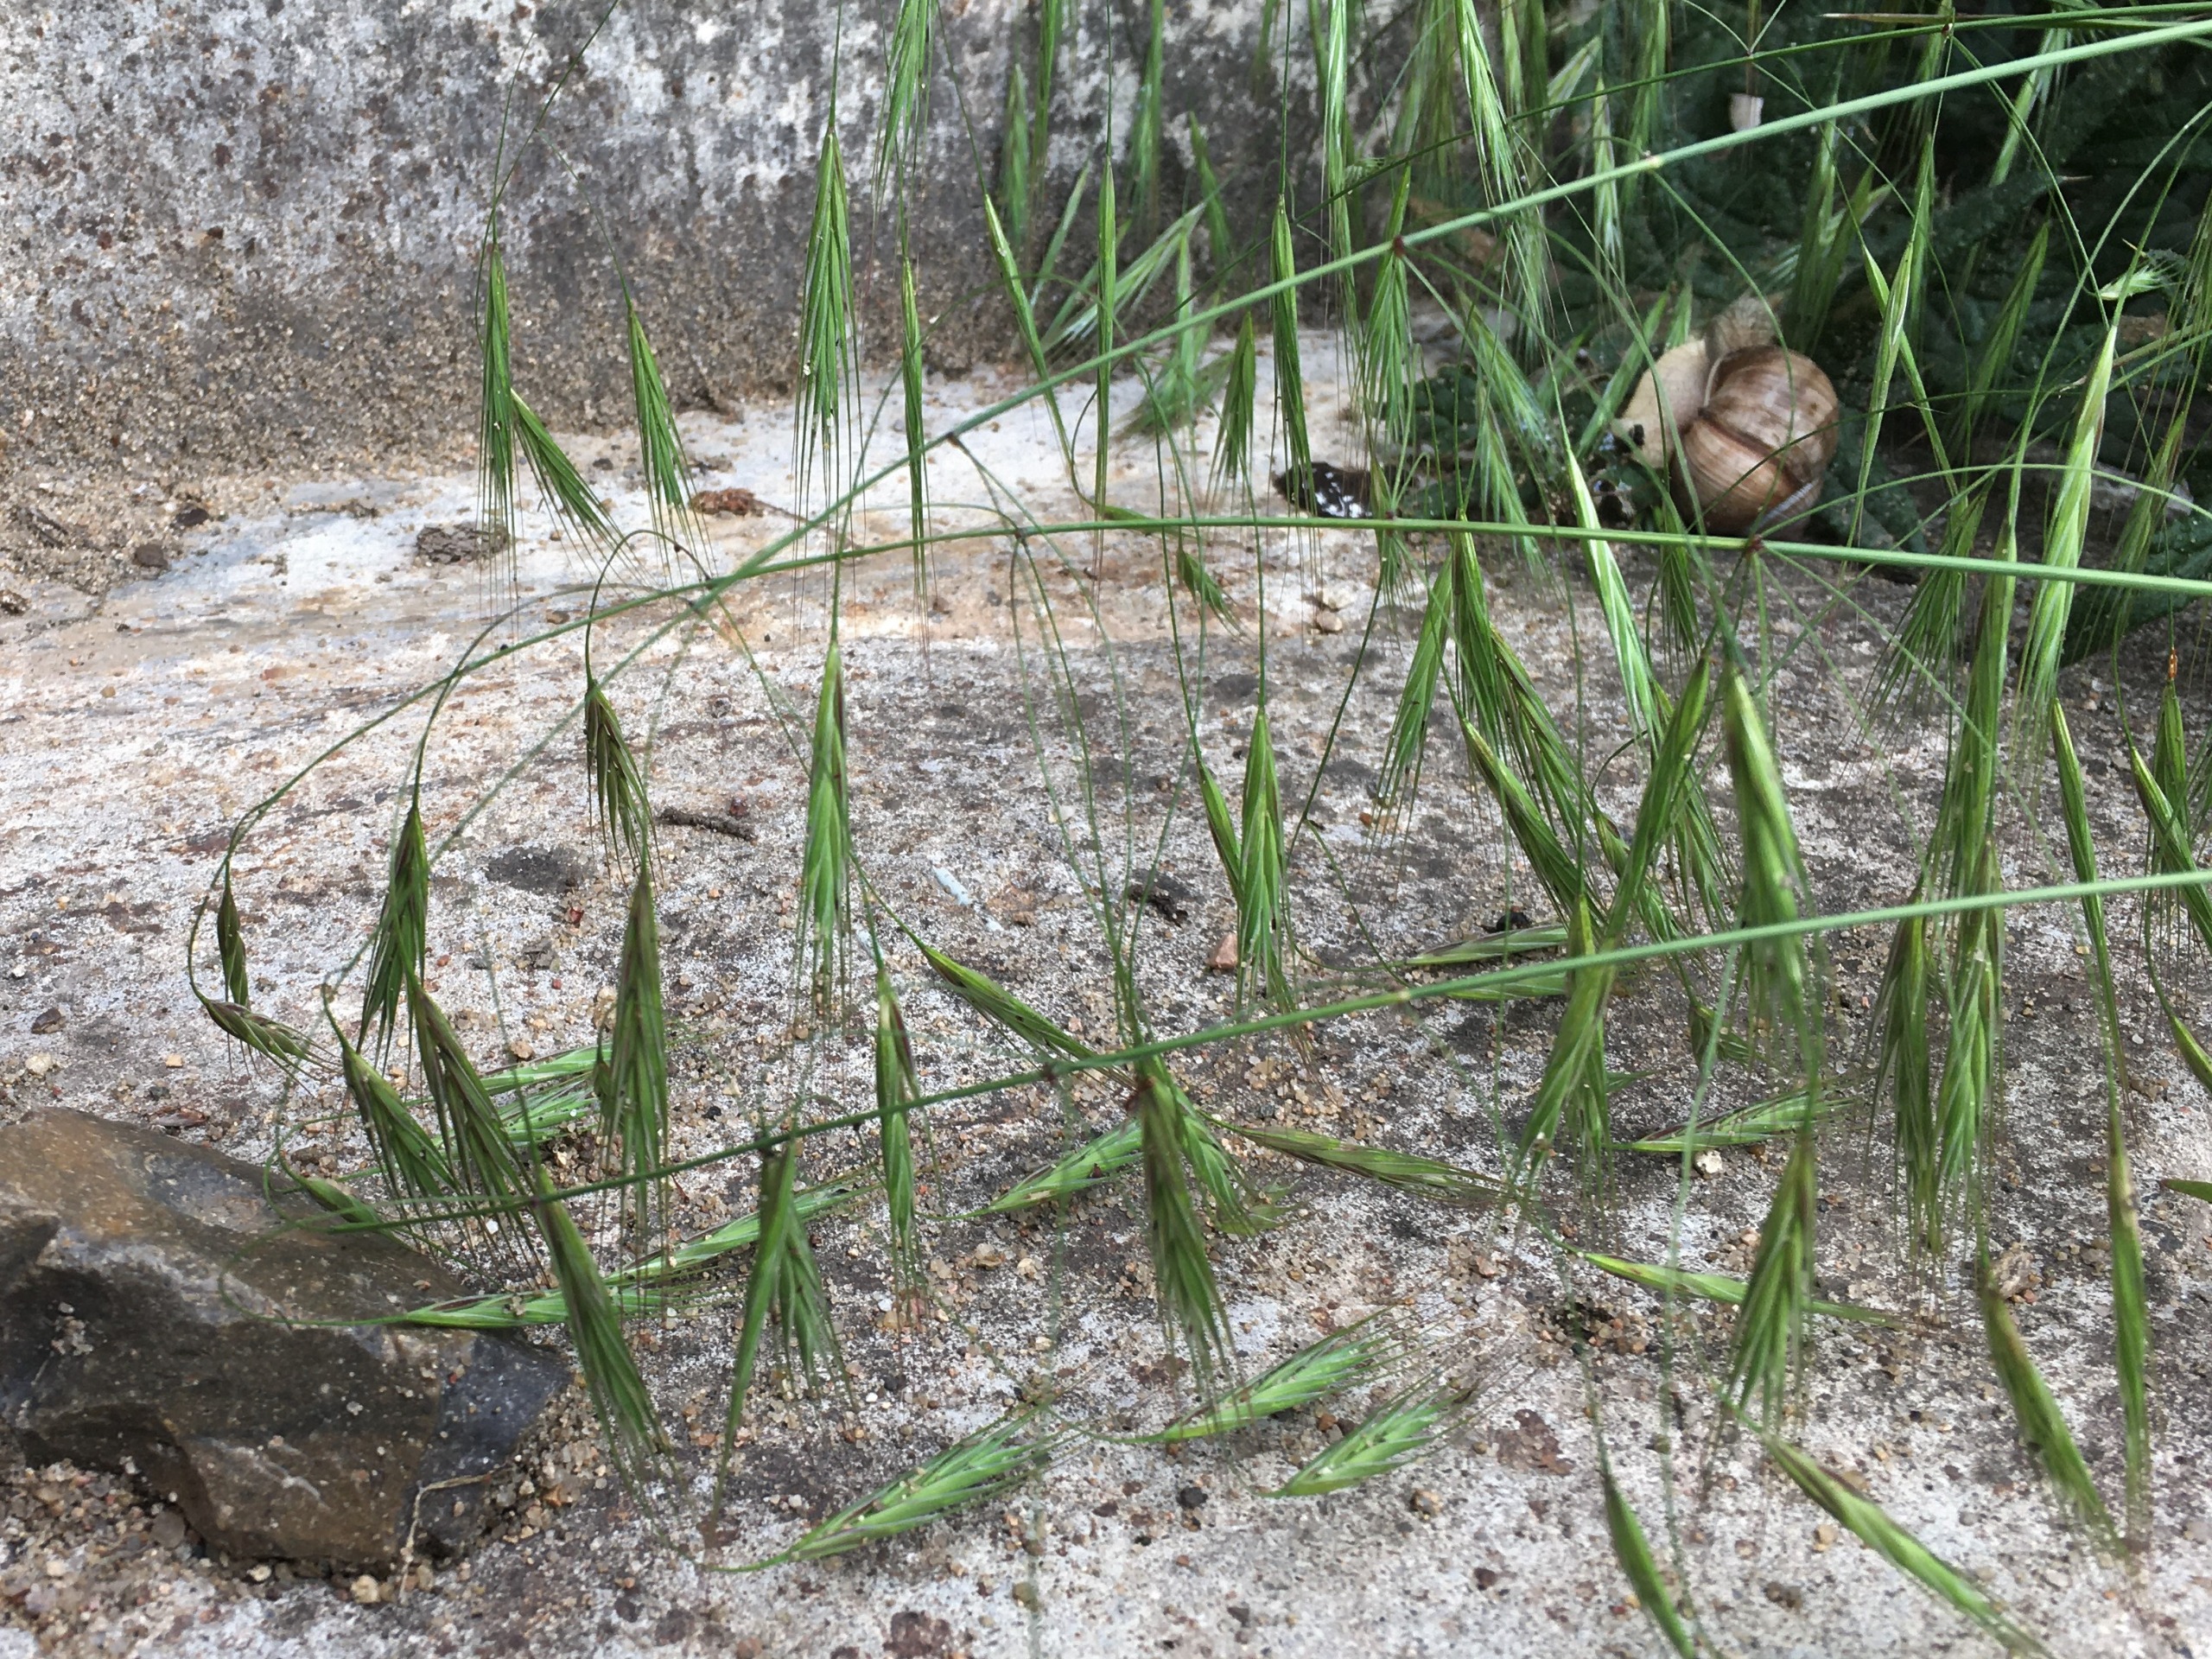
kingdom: Plantae
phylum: Tracheophyta
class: Liliopsida
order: Poales
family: Poaceae
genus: Bromus
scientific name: Bromus sterilis
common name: Gold hejre
